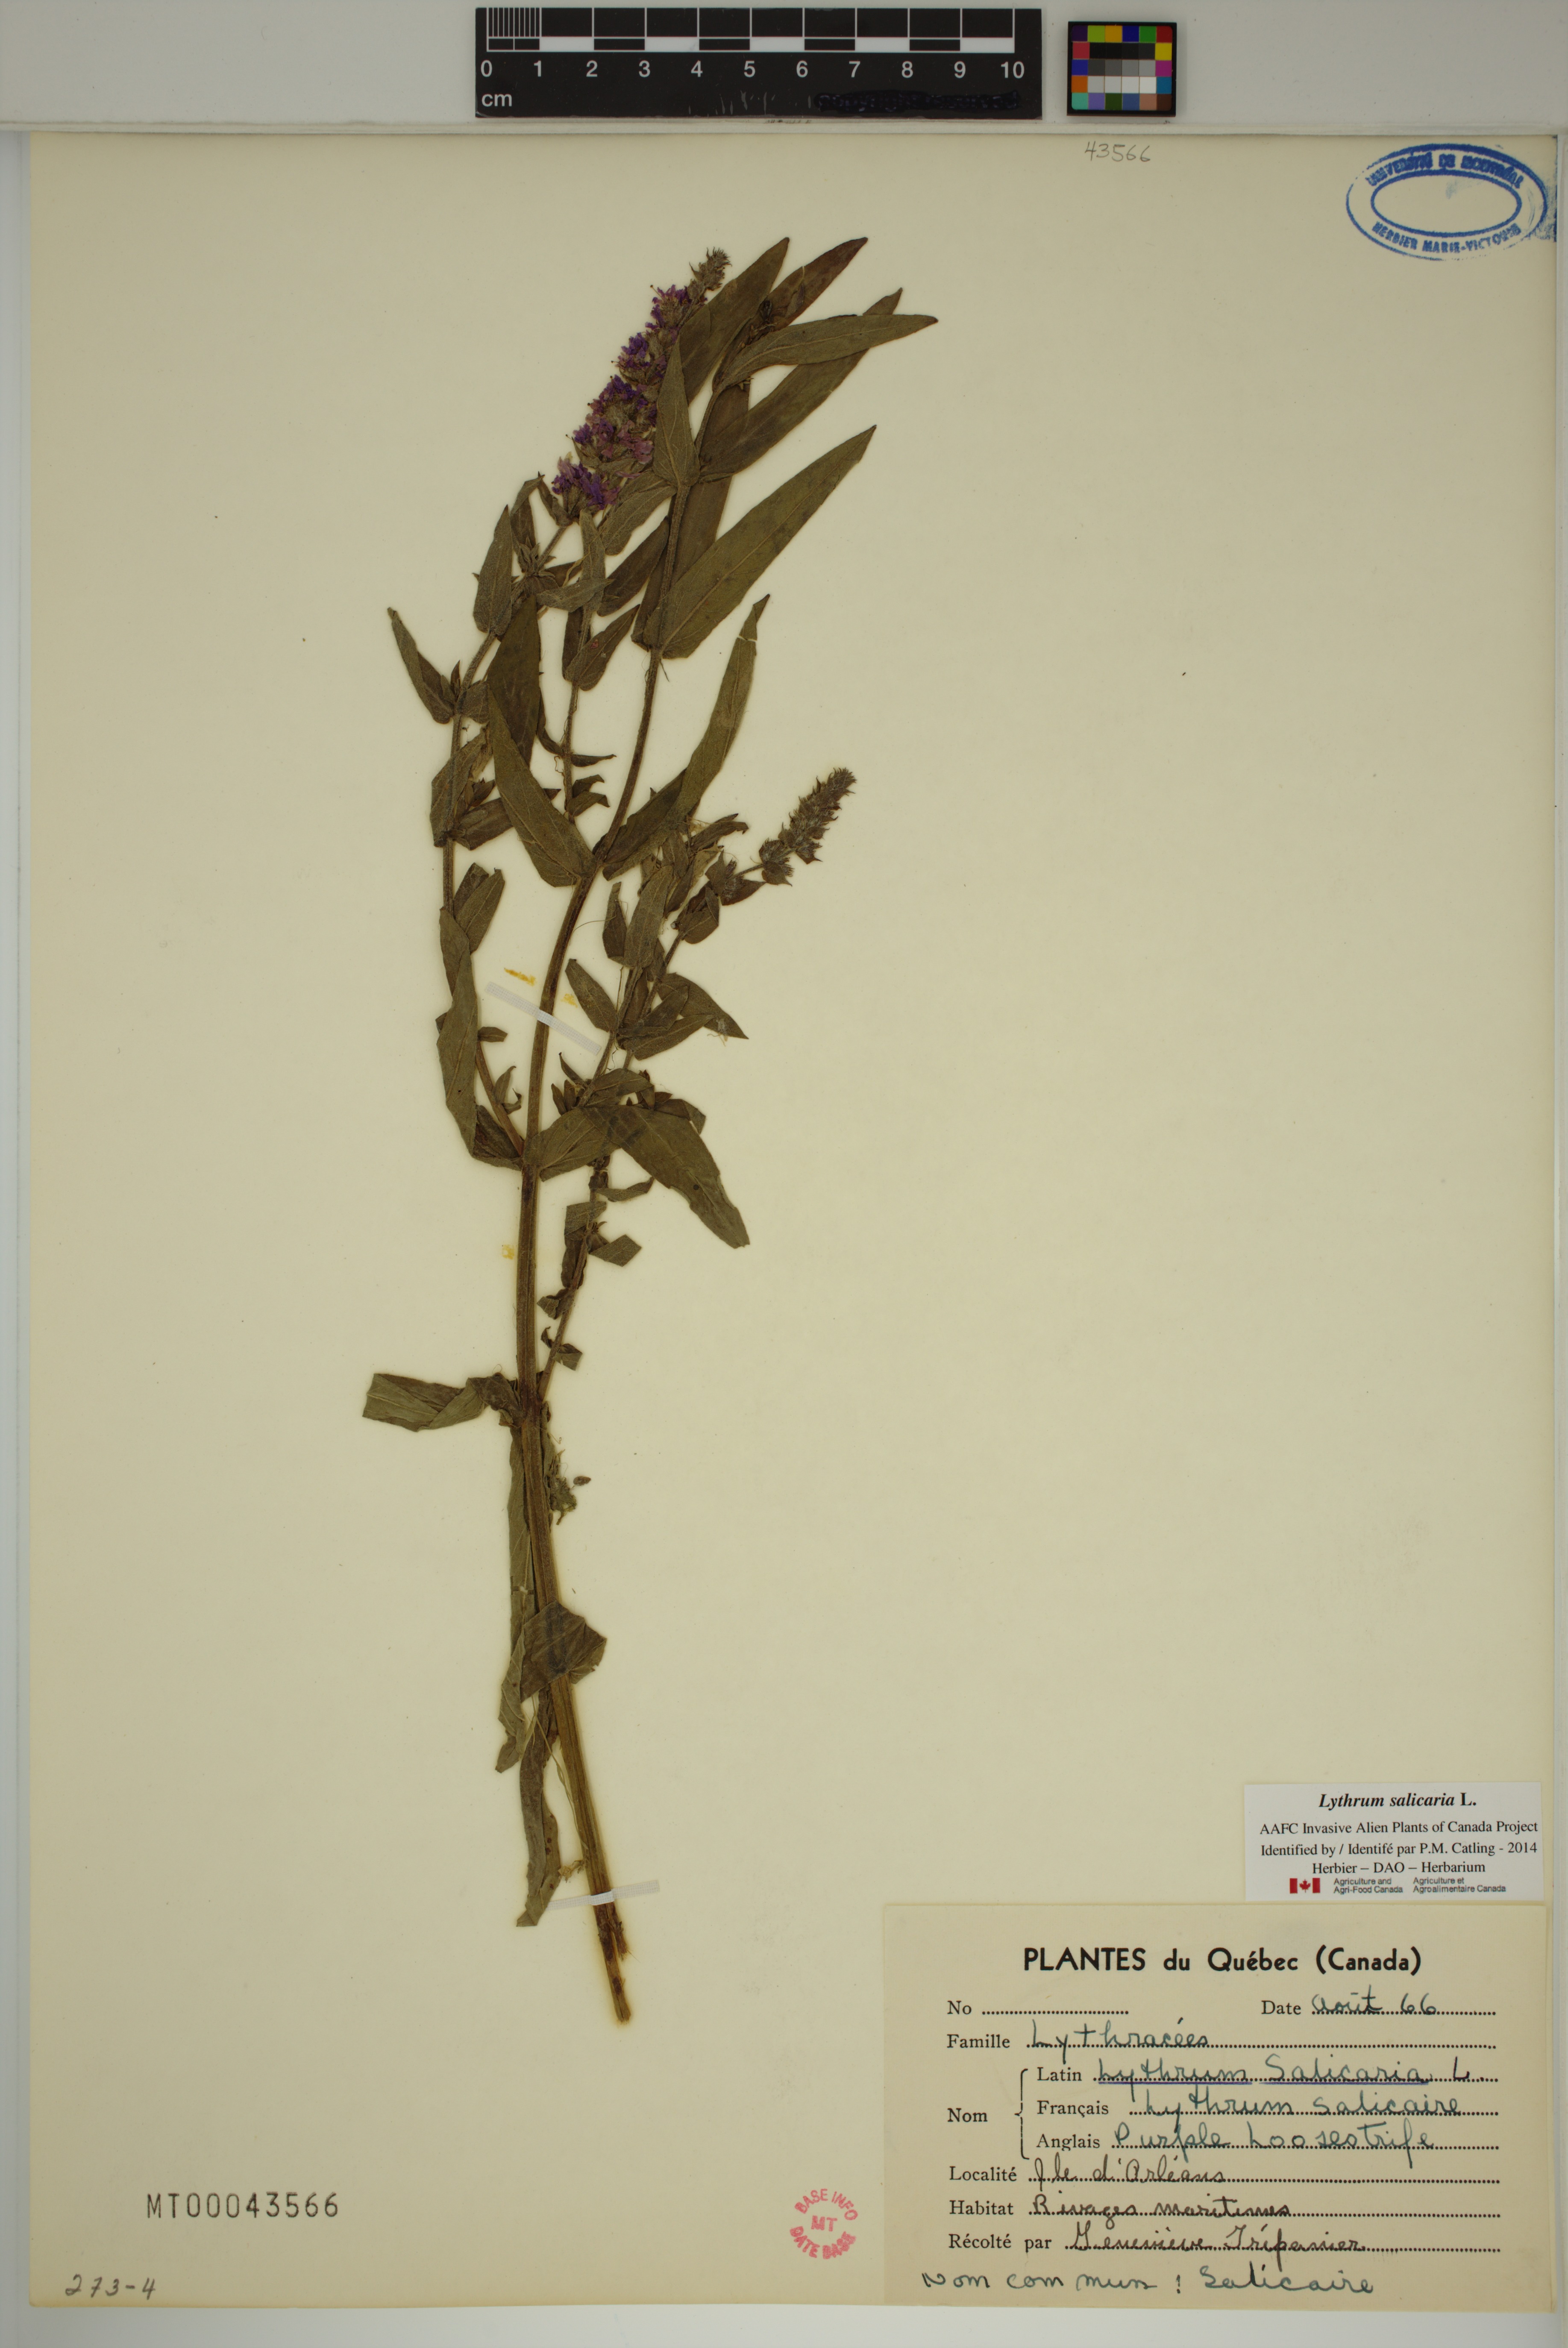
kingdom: Plantae
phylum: Tracheophyta
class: Magnoliopsida
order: Myrtales
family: Lythraceae
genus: Lythrum
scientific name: Lythrum salicaria
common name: Purple loosestrife
